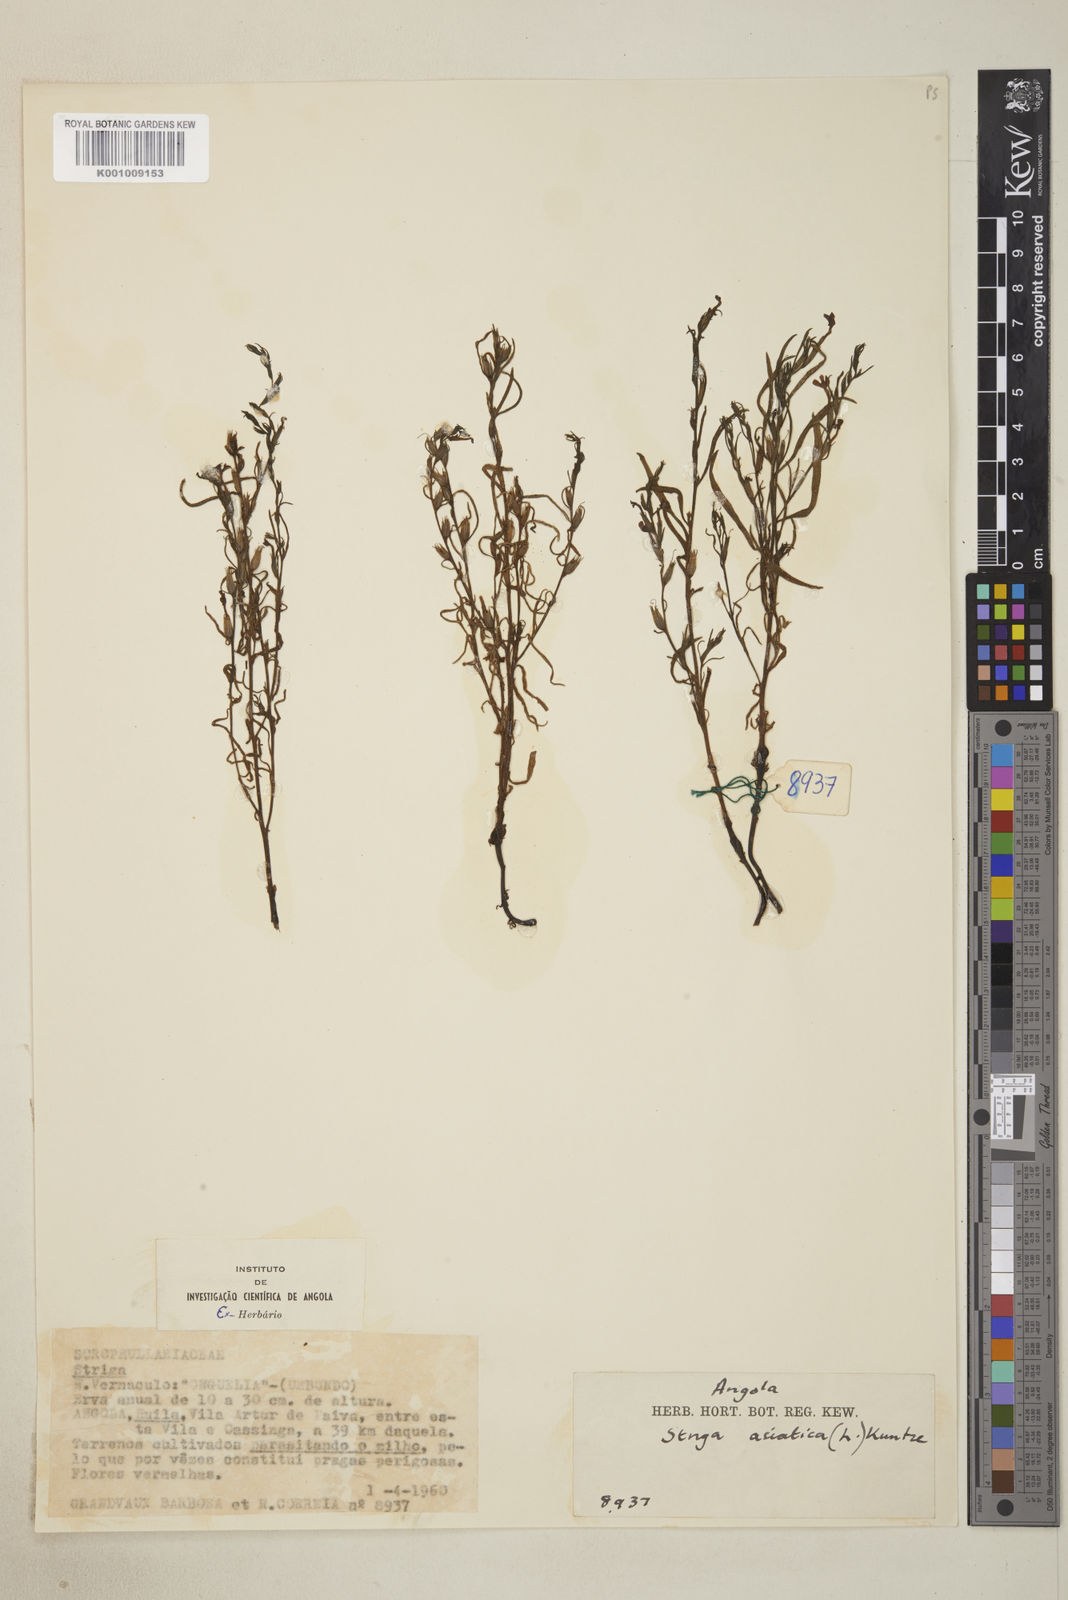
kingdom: Plantae
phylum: Tracheophyta
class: Magnoliopsida
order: Lamiales
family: Orobanchaceae
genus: Striga
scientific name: Striga asiatica
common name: Asiatic witchweed
